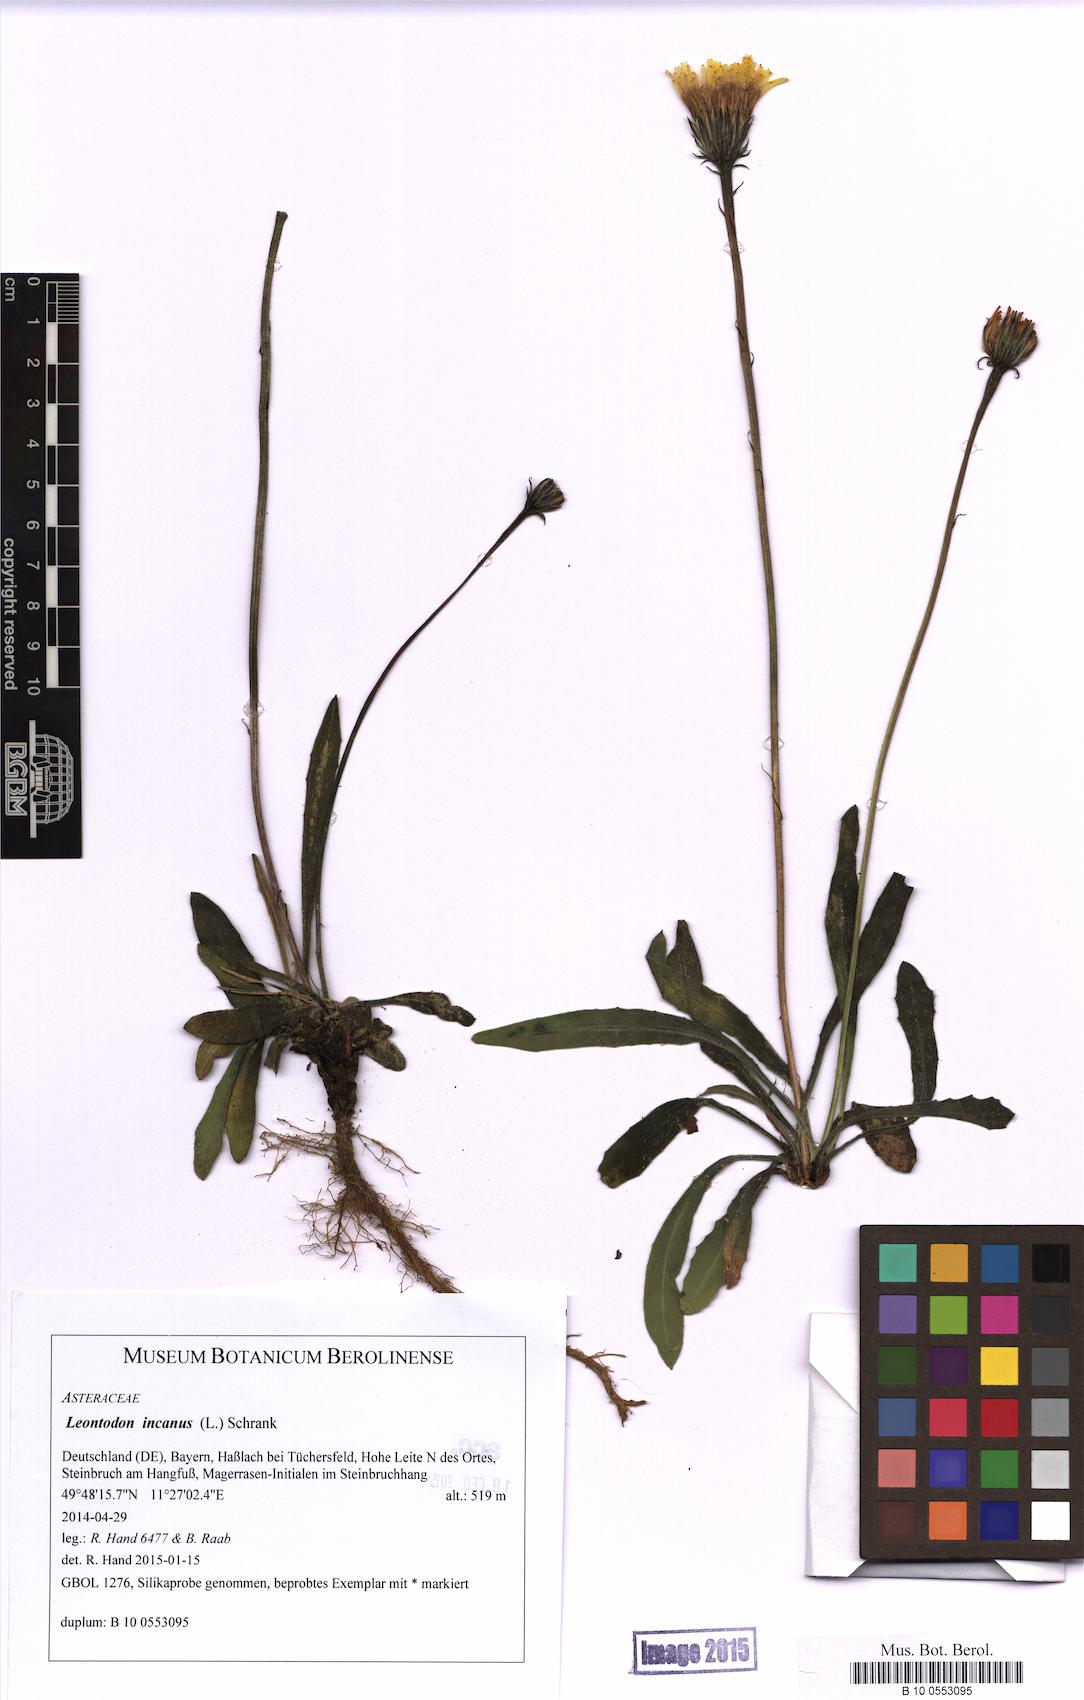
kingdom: Plantae
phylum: Tracheophyta
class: Magnoliopsida
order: Asterales
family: Asteraceae
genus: Leontodon
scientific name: Leontodon incanus
